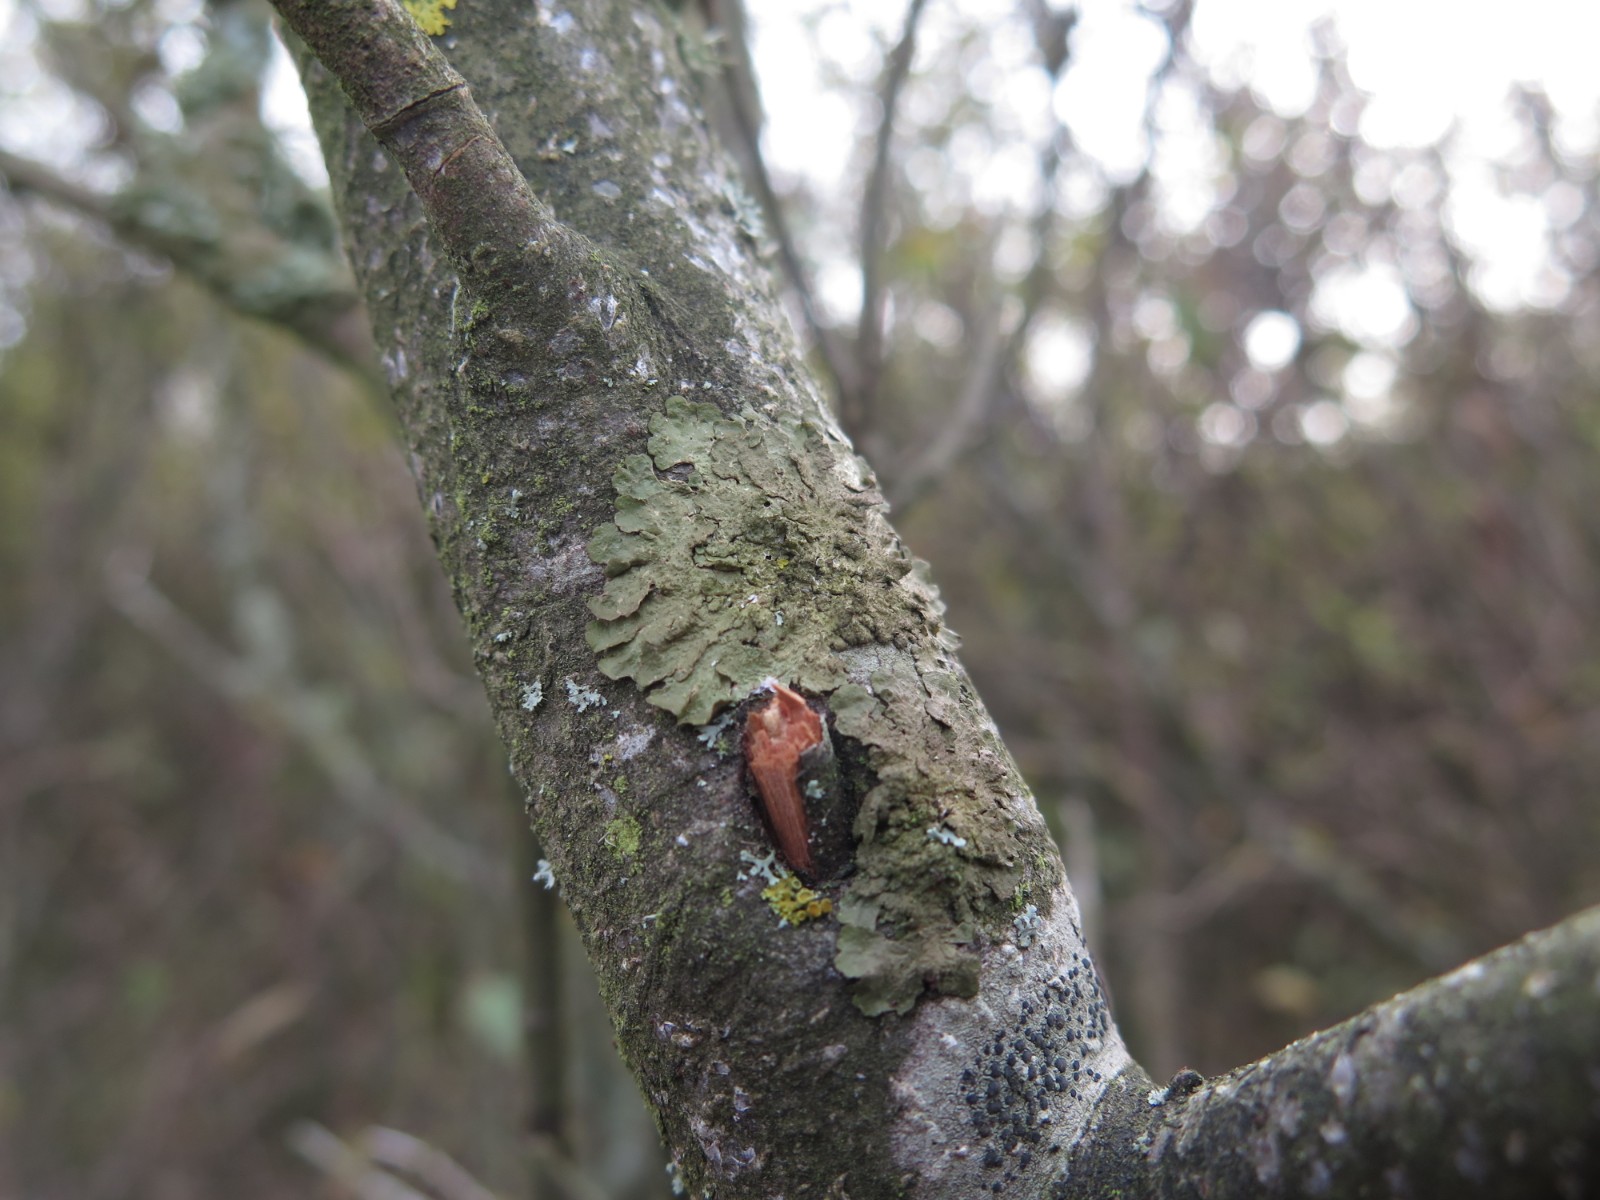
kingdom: Fungi
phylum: Ascomycota
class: Lecanoromycetes
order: Lecanorales
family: Parmeliaceae
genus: Melanelixia
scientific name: Melanelixia subaurifera
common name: guldpudret skållav
